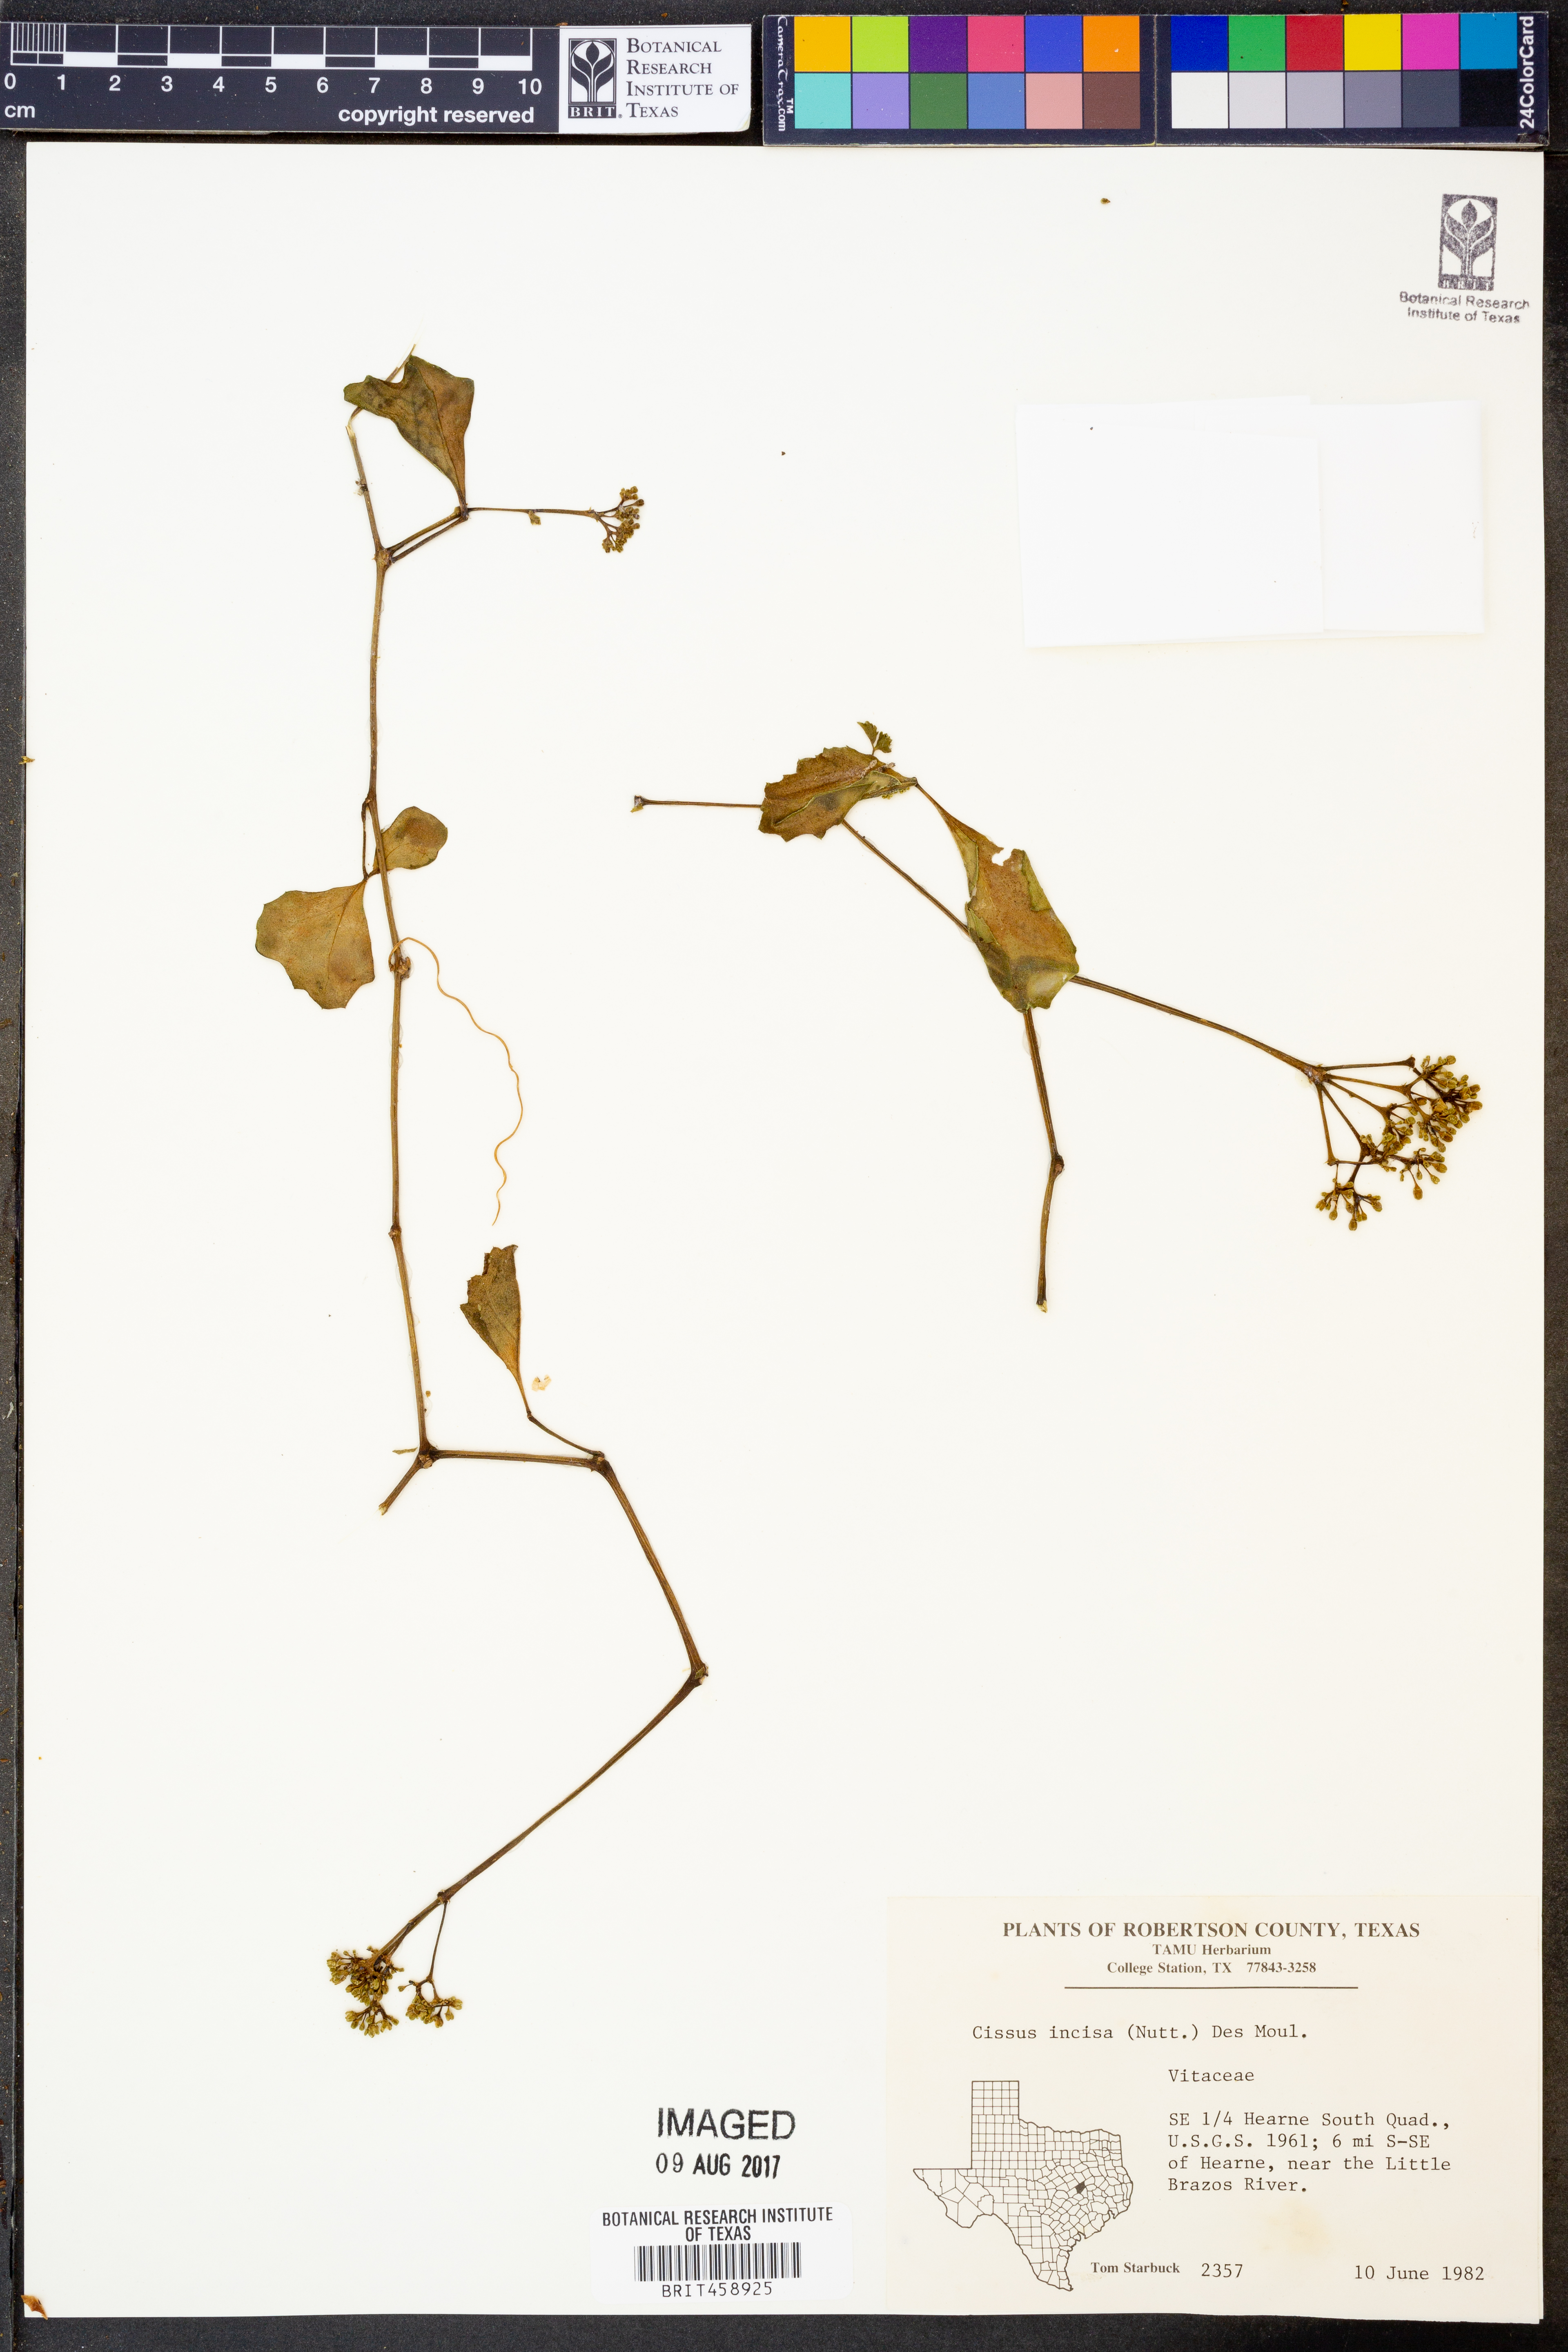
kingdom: Plantae
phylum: Tracheophyta
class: Magnoliopsida
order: Vitales
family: Vitaceae
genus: Cissus
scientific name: Cissus trifoliata
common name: Vine-sorrel
